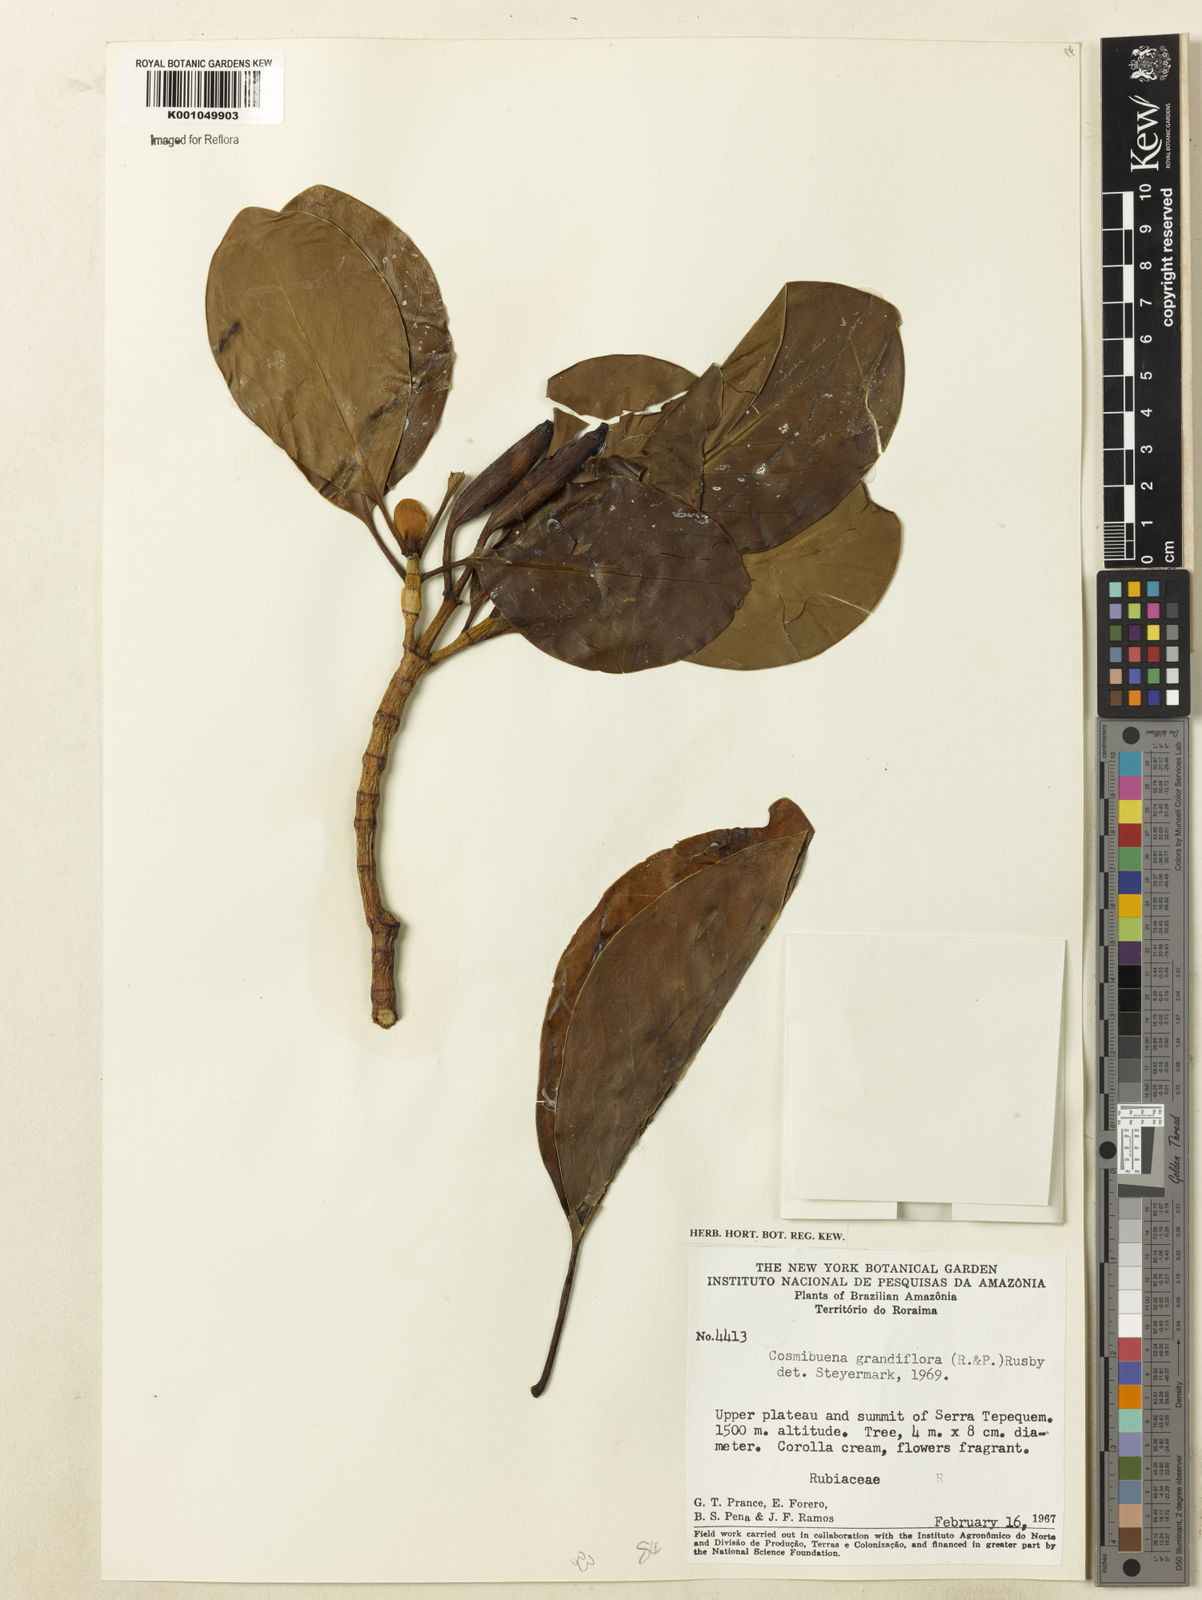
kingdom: Plantae
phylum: Tracheophyta
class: Magnoliopsida
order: Gentianales
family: Rubiaceae
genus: Cosmibuena
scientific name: Cosmibuena grandiflora
